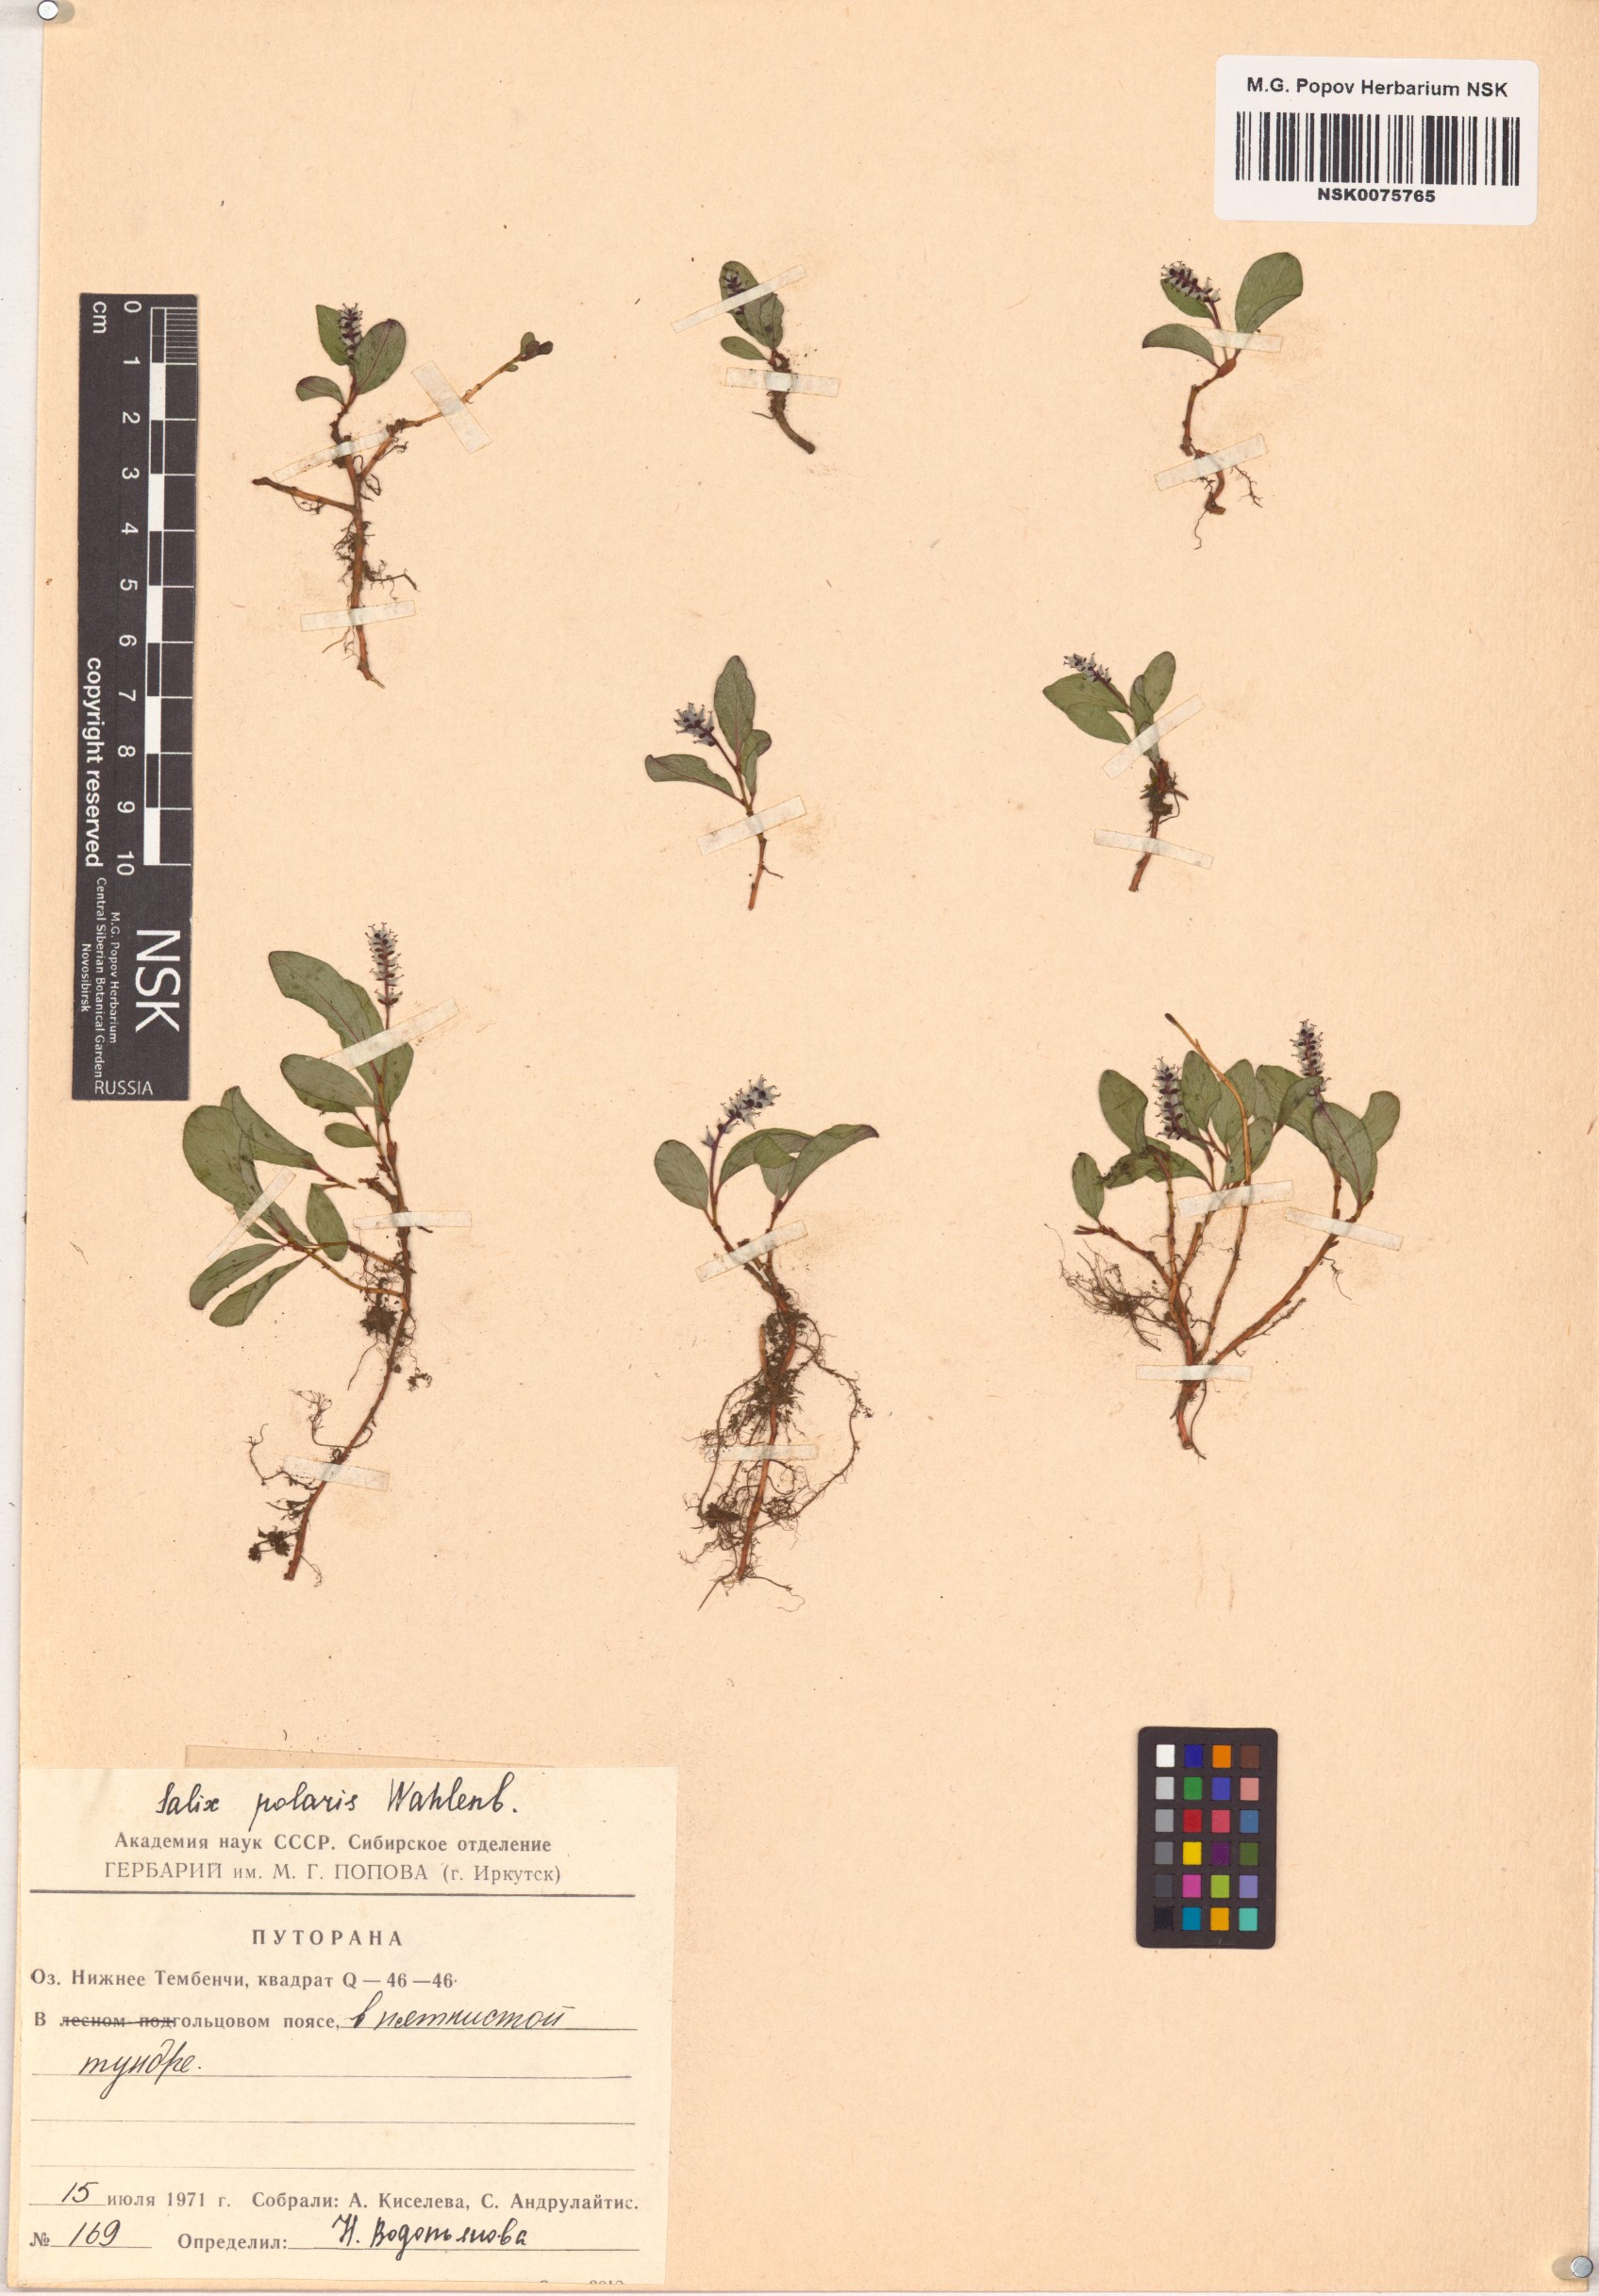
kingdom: Plantae
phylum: Tracheophyta
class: Magnoliopsida
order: Malpighiales
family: Salicaceae
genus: Salix
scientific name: Salix polaris
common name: Polar willow
